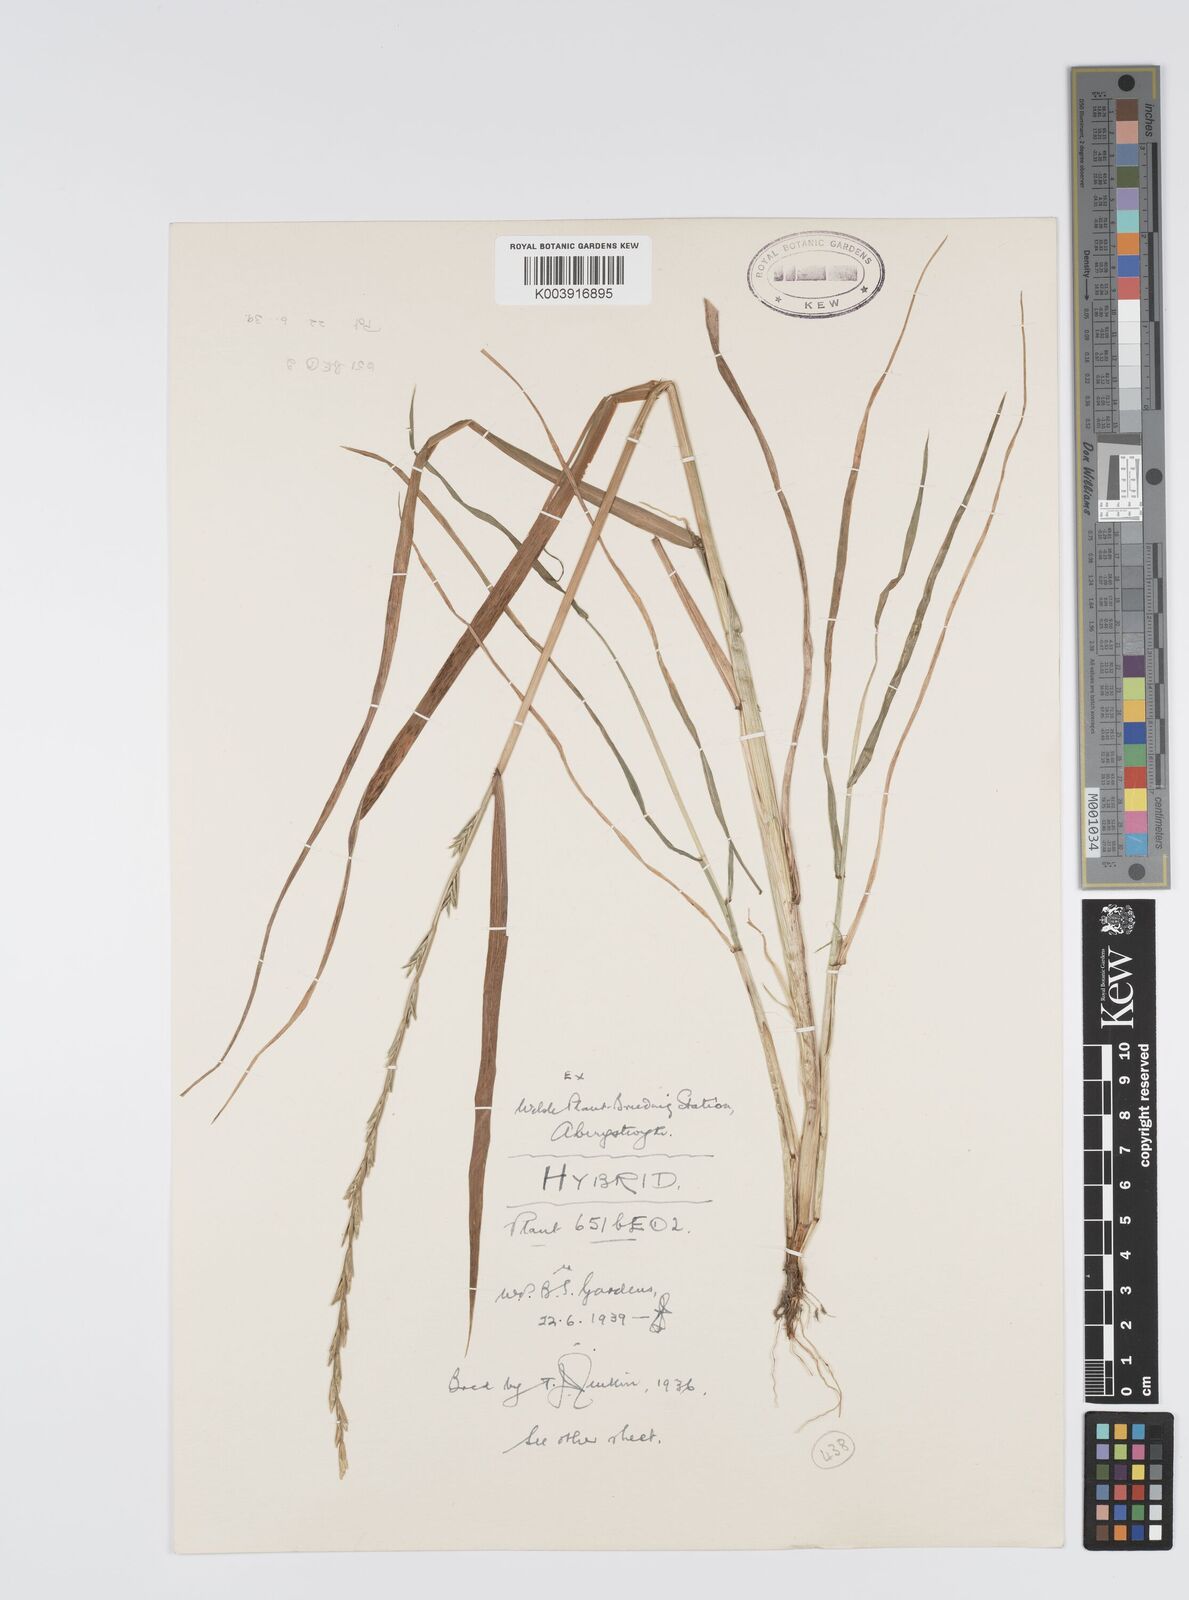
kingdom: Plantae
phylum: Tracheophyta
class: Liliopsida
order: Poales
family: Poaceae
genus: Lolium
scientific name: Lolium multiflorum
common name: Annual ryegrass
